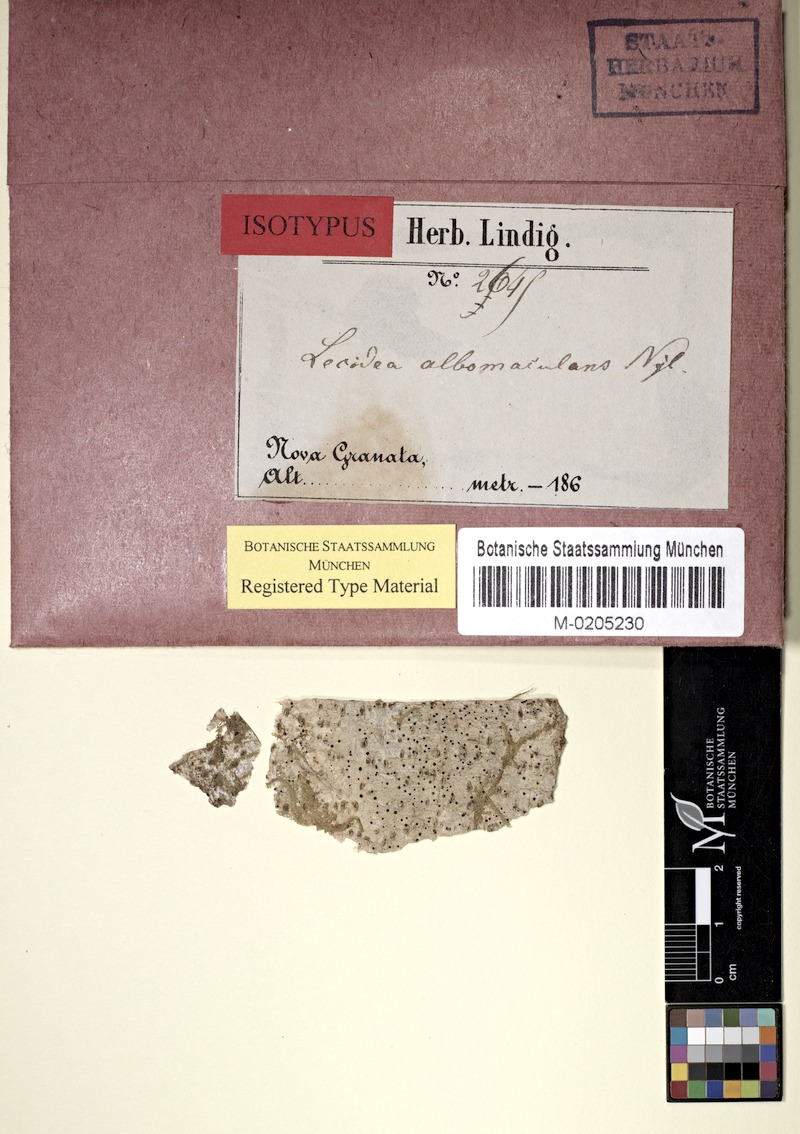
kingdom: Fungi
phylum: Ascomycota
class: Lecanoromycetes
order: Lecanorales
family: Ramalinaceae
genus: Bacidia
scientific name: Bacidia albomaculans
